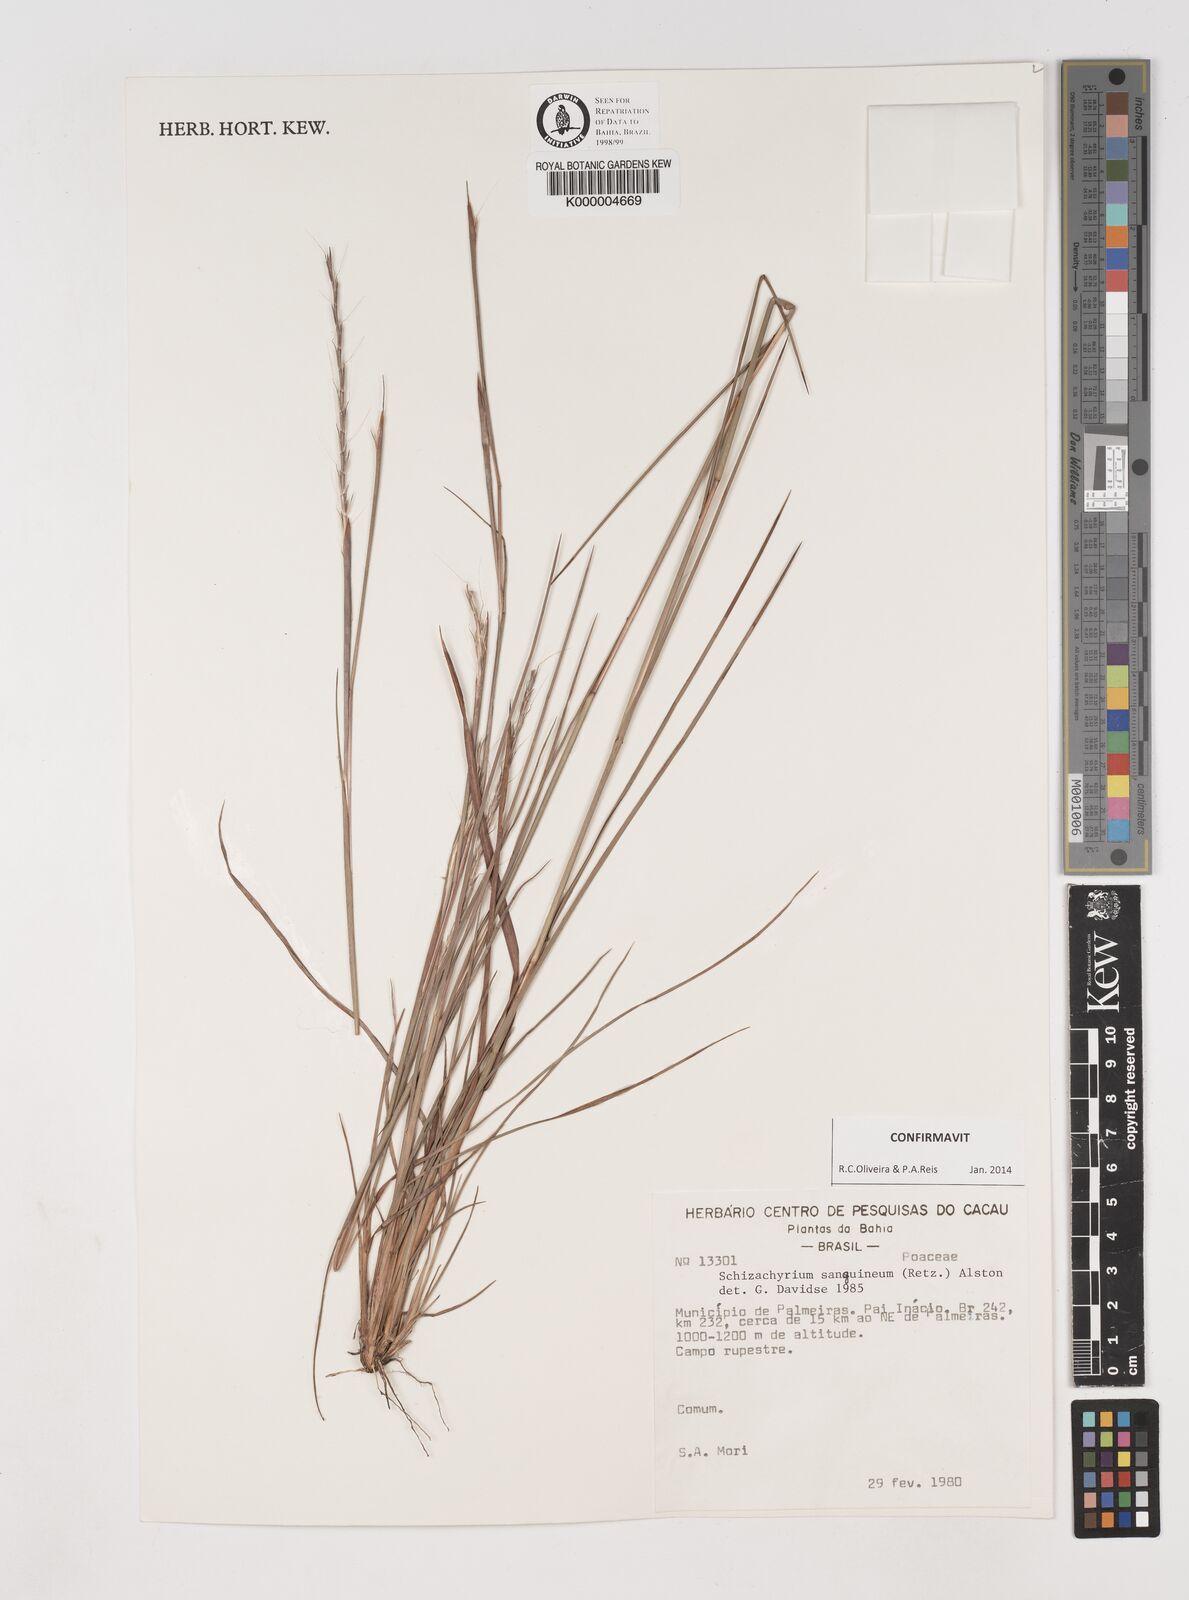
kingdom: Plantae
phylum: Tracheophyta
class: Liliopsida
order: Poales
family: Poaceae
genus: Schizachyrium
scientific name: Schizachyrium sanguineum
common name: Crimson bluestem
